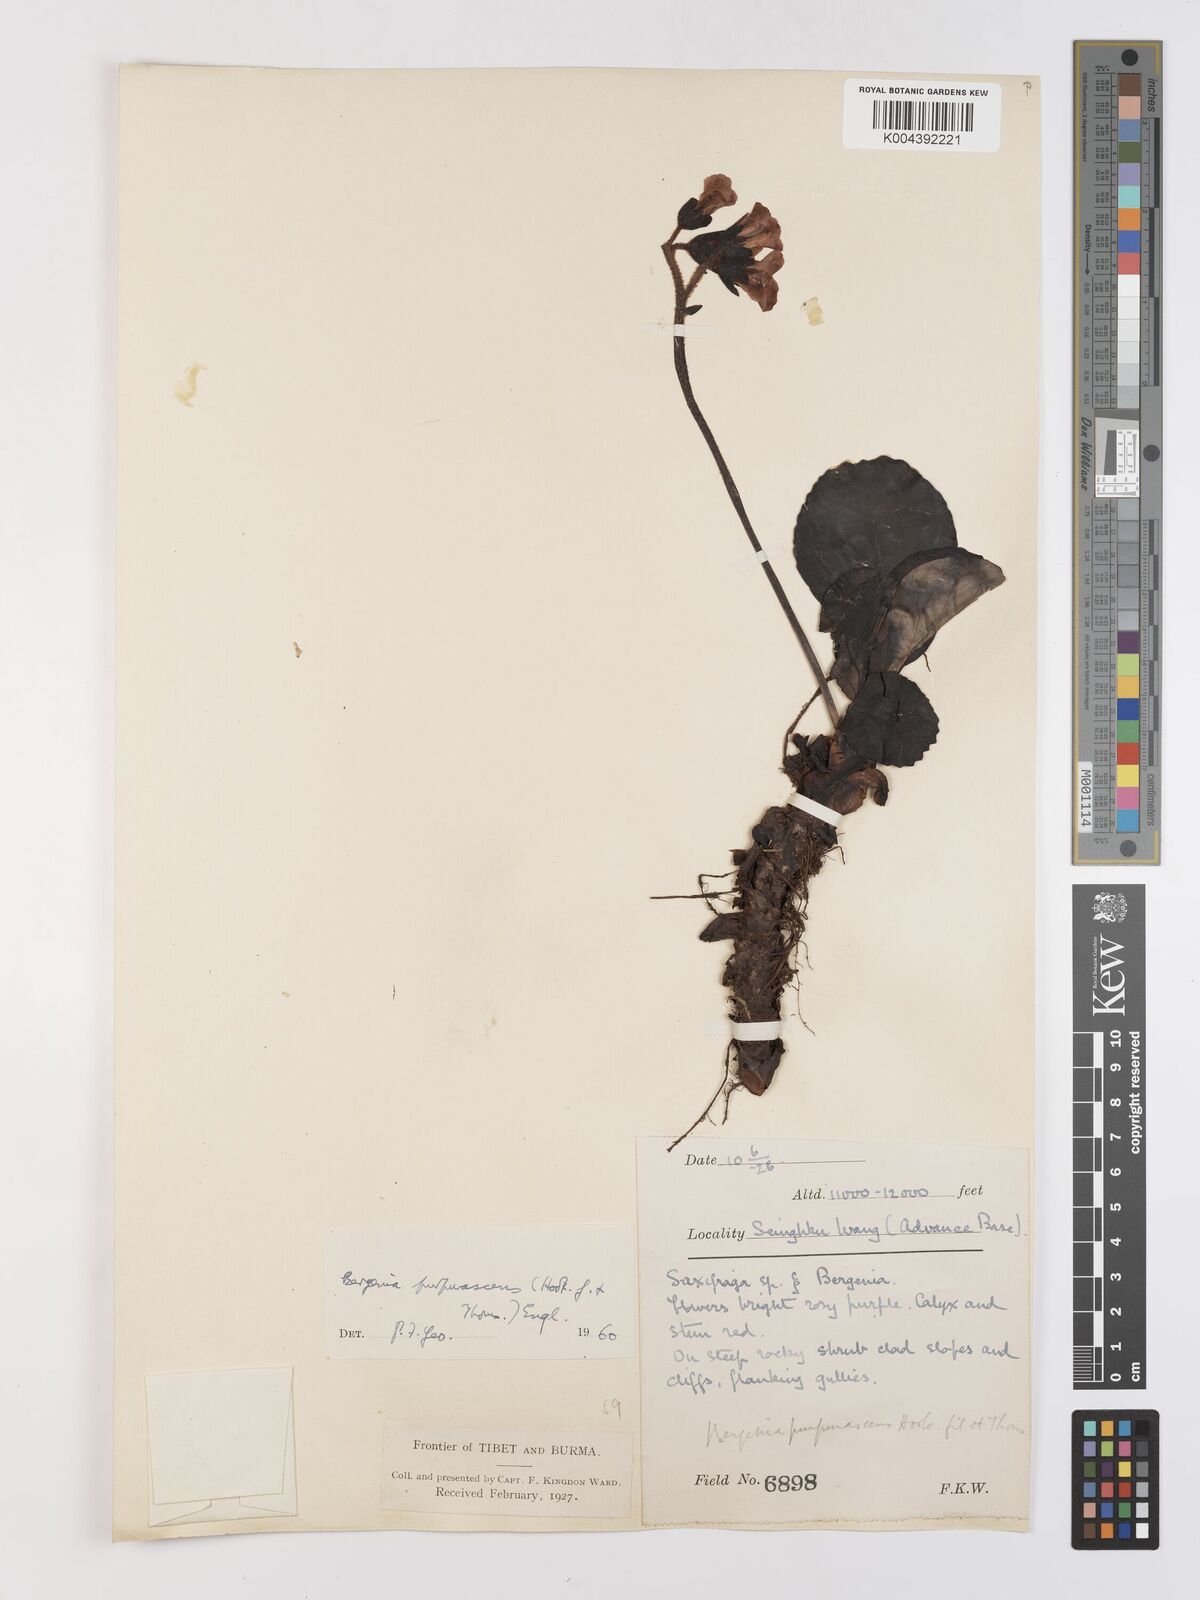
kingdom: Plantae
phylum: Tracheophyta
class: Magnoliopsida
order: Saxifragales
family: Saxifragaceae
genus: Bergenia
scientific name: Bergenia purpurascens
